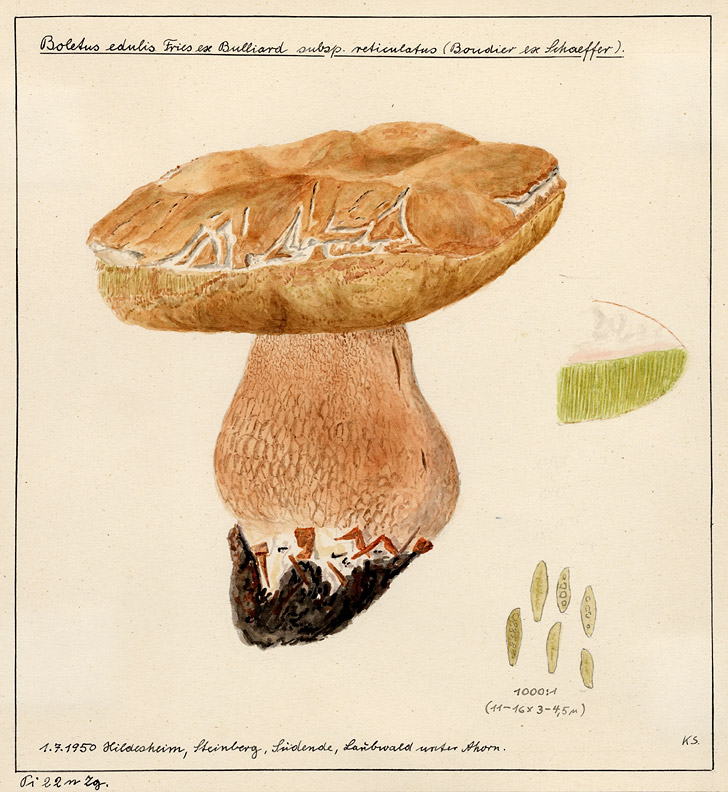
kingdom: Fungi
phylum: Basidiomycota
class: Agaricomycetes
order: Boletales
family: Boletaceae
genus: Boletus
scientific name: Boletus reticulatus
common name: Summer bolete
